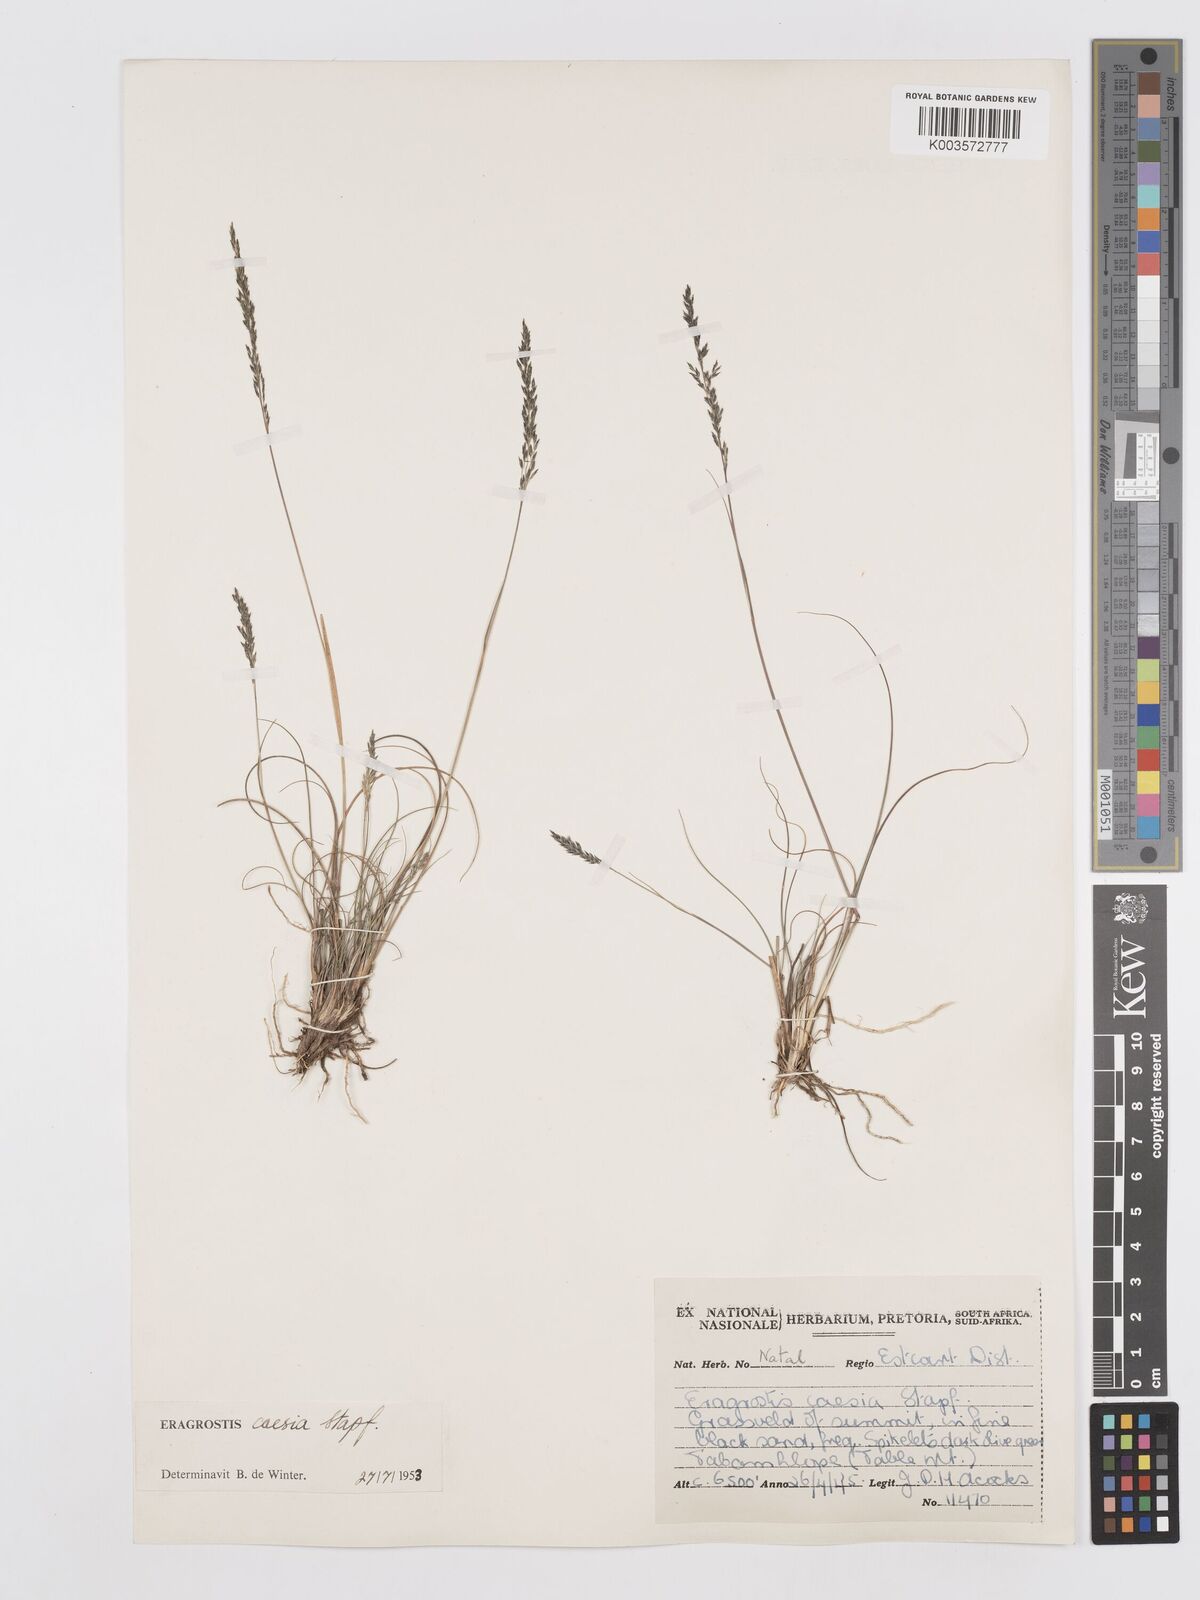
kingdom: Plantae
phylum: Tracheophyta
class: Liliopsida
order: Poales
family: Poaceae
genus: Eragrostis
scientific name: Eragrostis caesia
